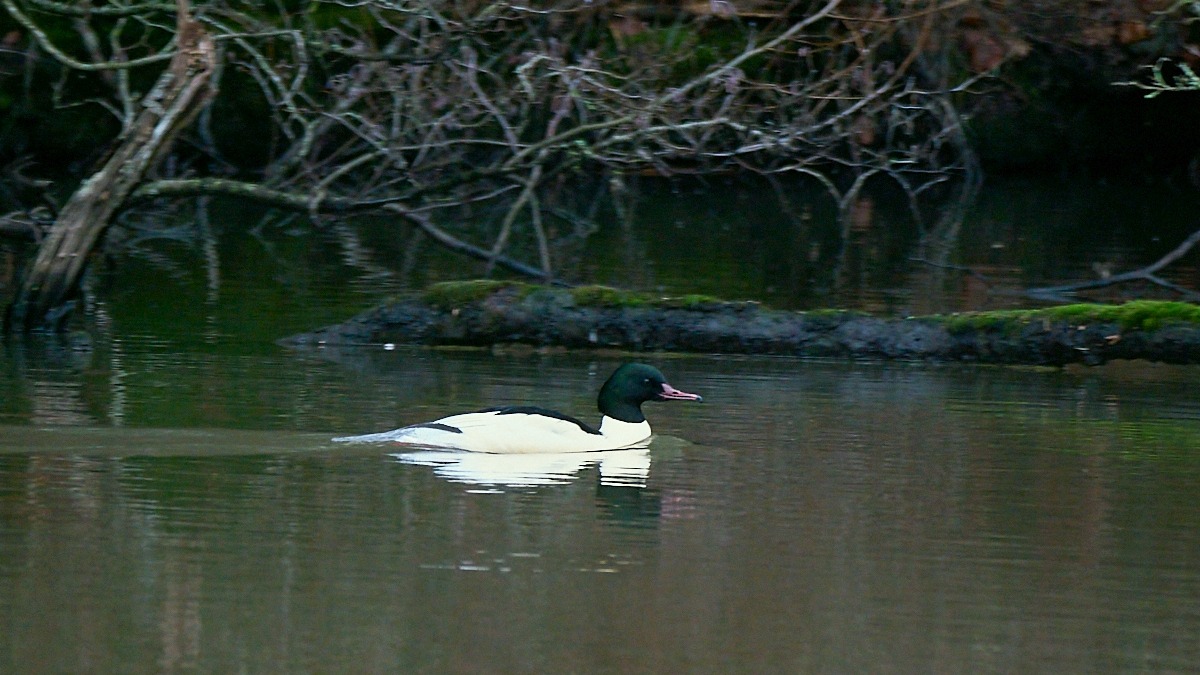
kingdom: Animalia
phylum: Chordata
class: Aves
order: Anseriformes
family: Anatidae
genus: Mergus
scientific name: Mergus merganser
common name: Stor skallesluger
